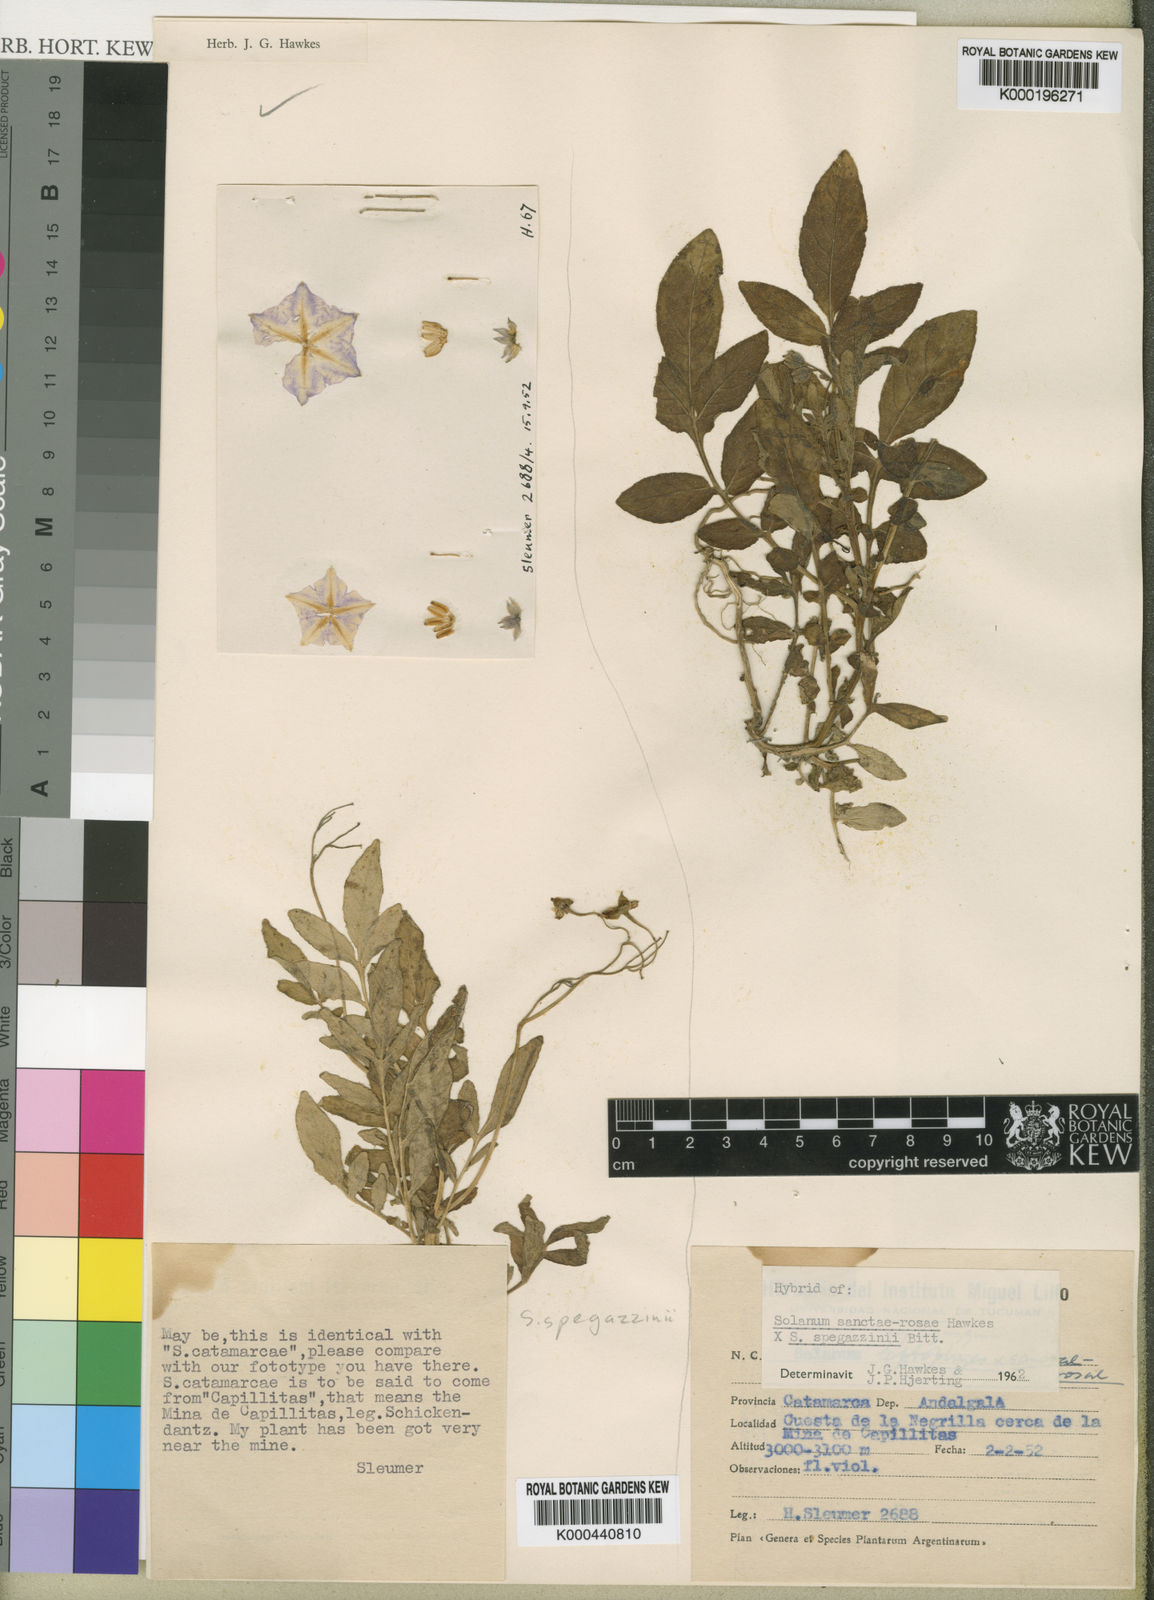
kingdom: Plantae
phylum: Tracheophyta
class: Magnoliopsida
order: Solanales
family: Solanaceae
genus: Solanum
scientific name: Solanum brevicaule
